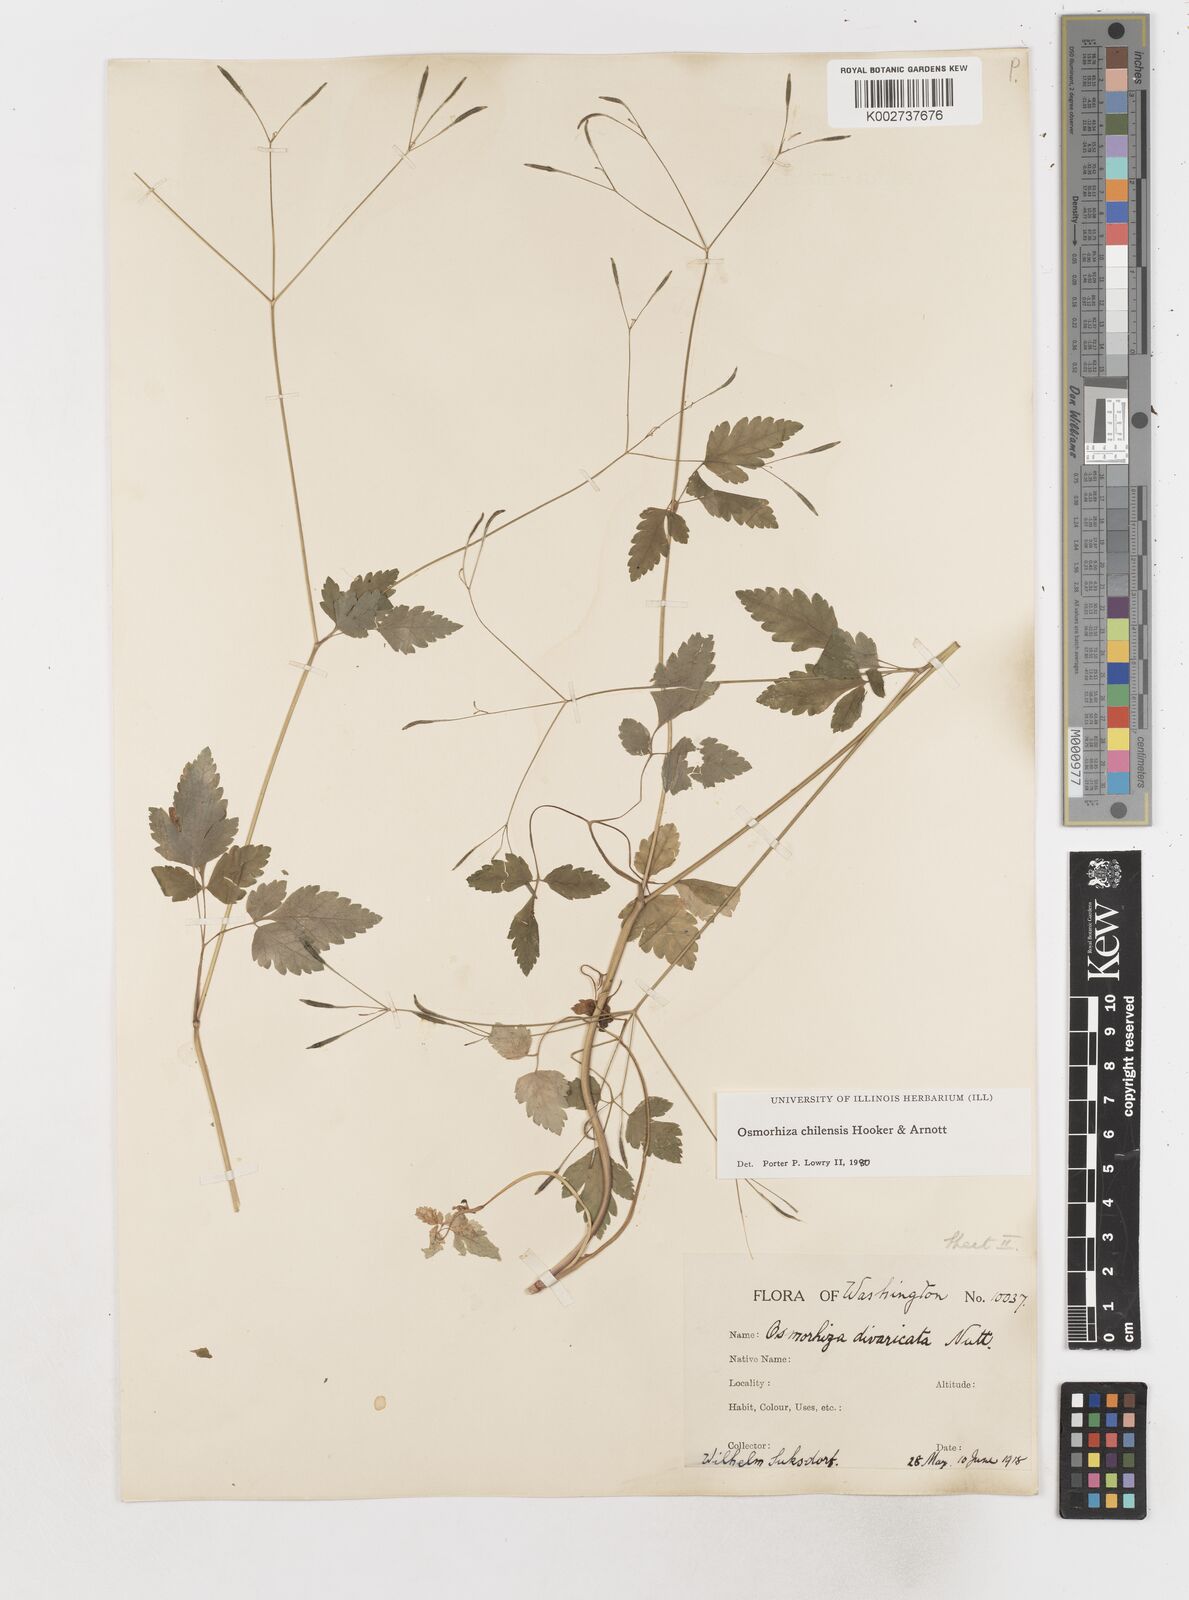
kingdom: Plantae
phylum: Tracheophyta
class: Magnoliopsida
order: Apiales
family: Apiaceae
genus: Osmorhiza
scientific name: Osmorhiza berteroi
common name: Mountain sweet cicely
